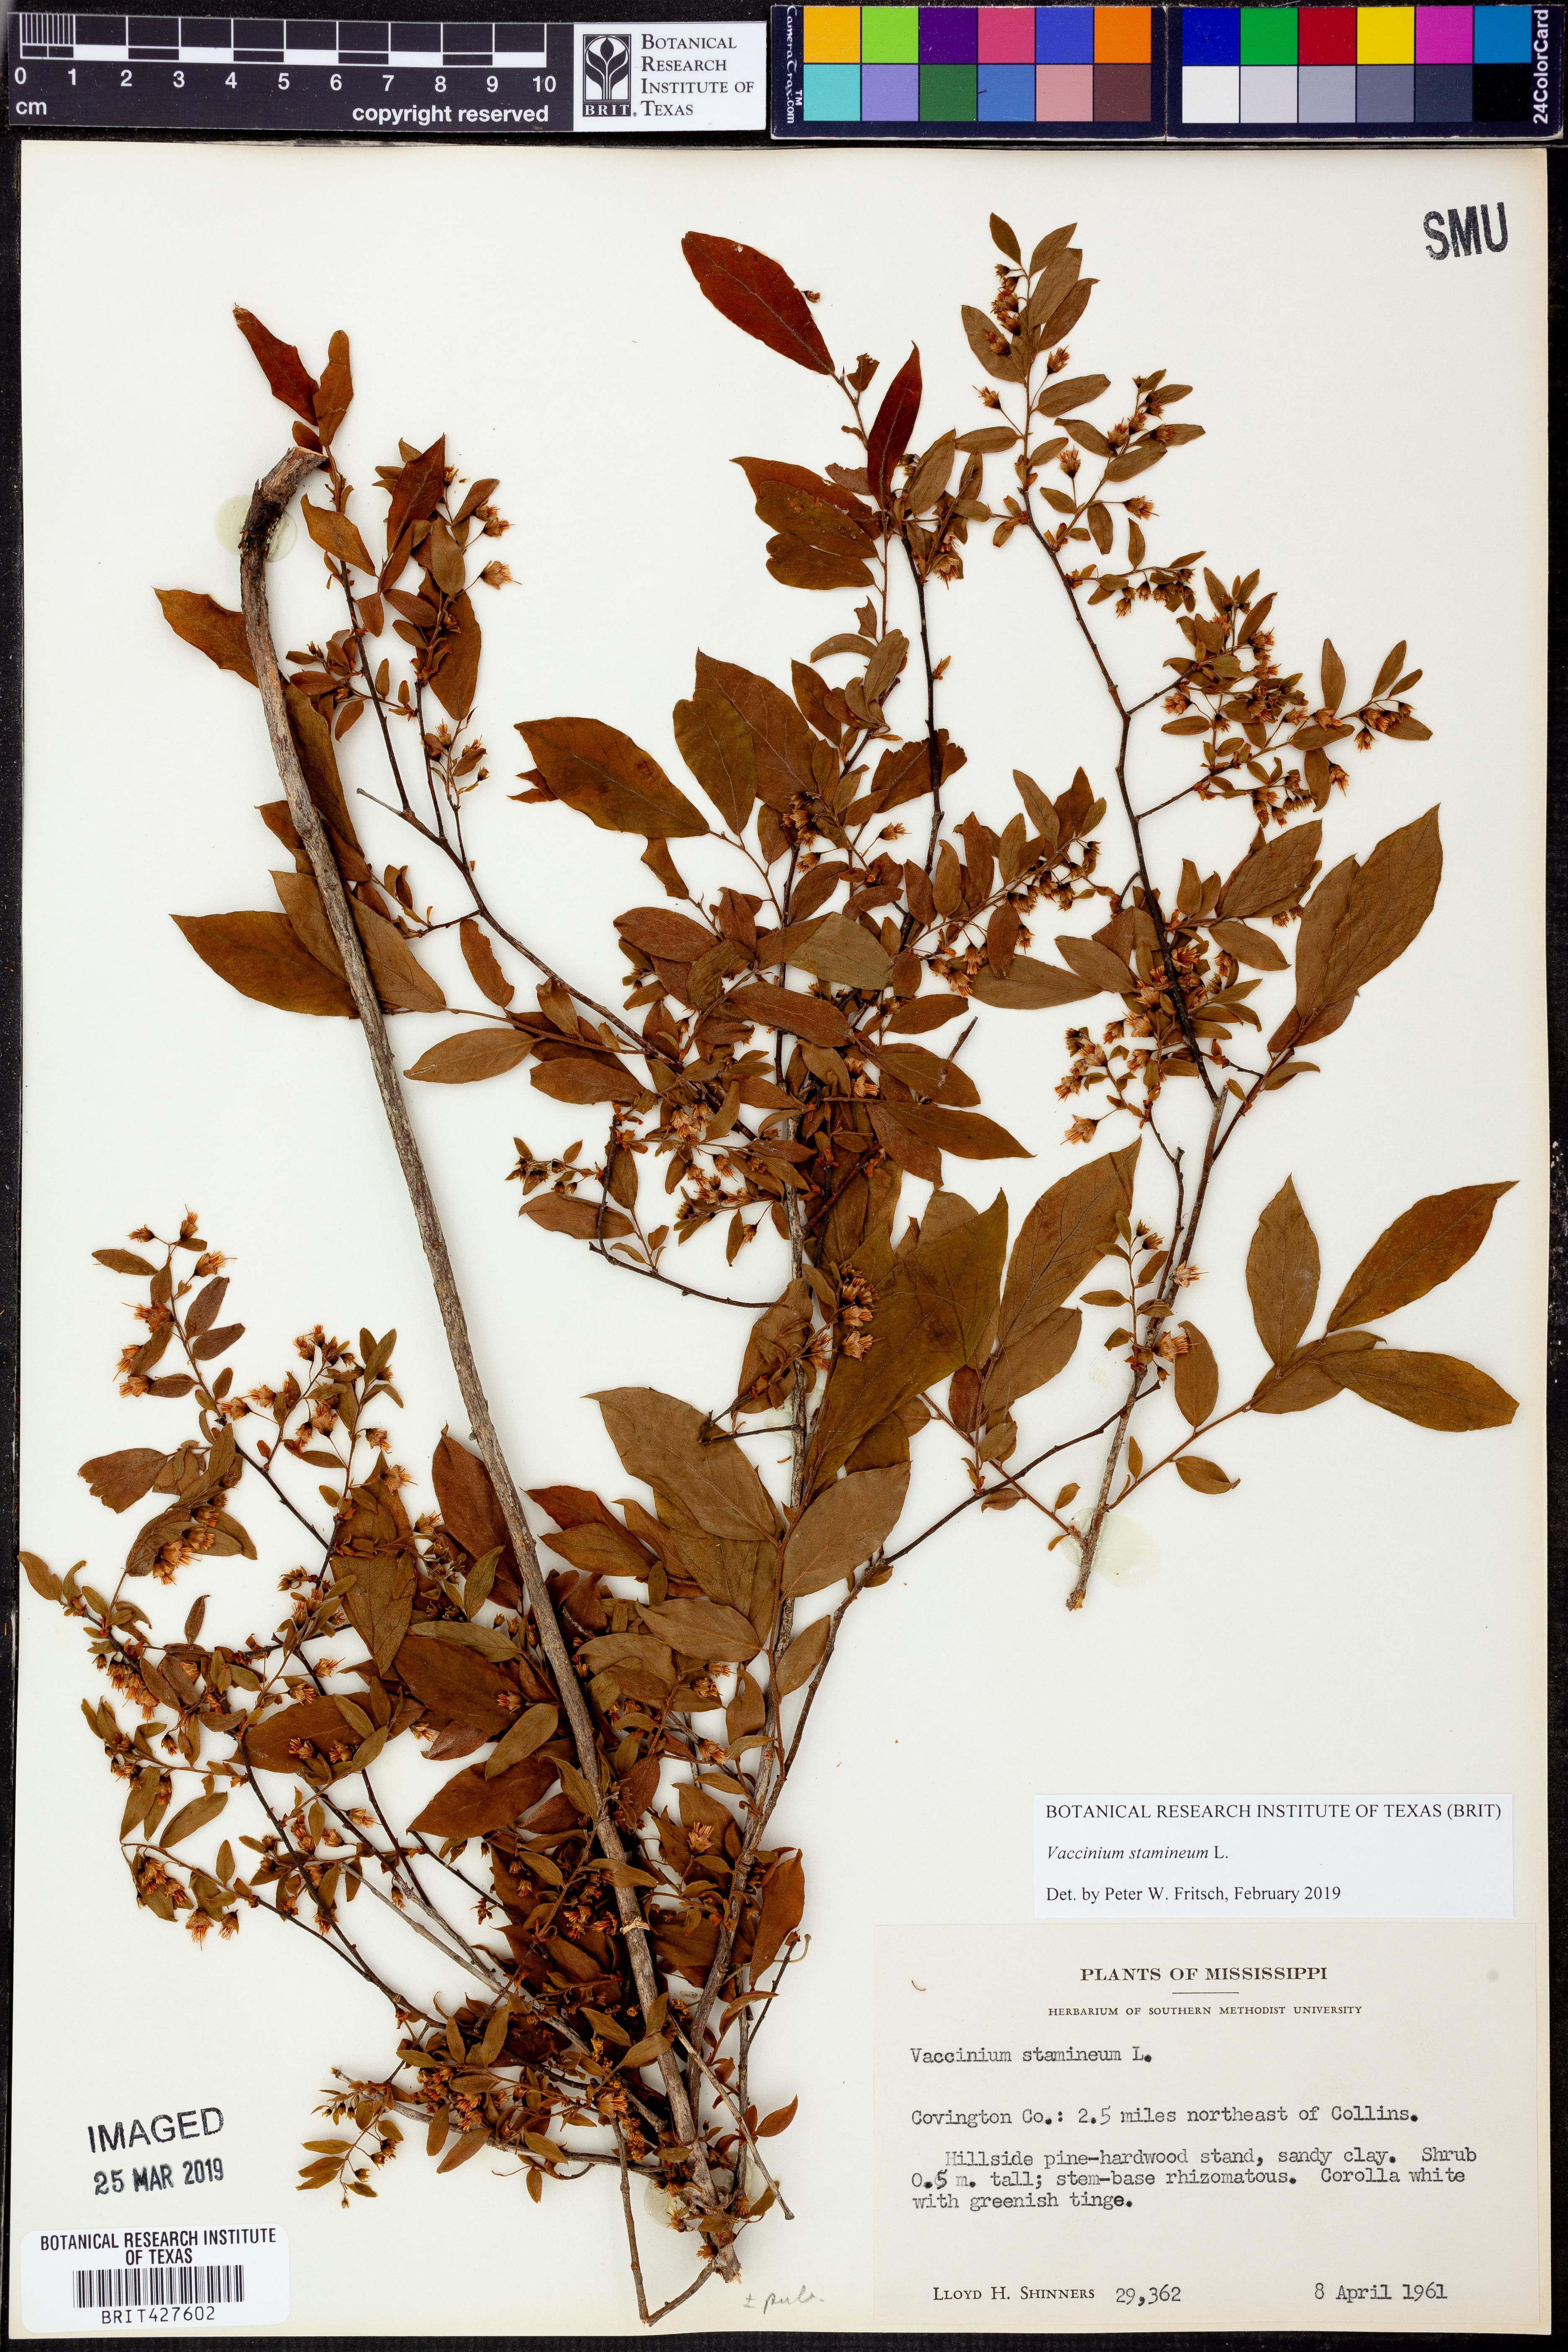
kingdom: Plantae
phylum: Tracheophyta
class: Magnoliopsida
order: Ericales
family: Ericaceae
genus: Vaccinium
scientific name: Vaccinium stamineum
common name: Deerberry
